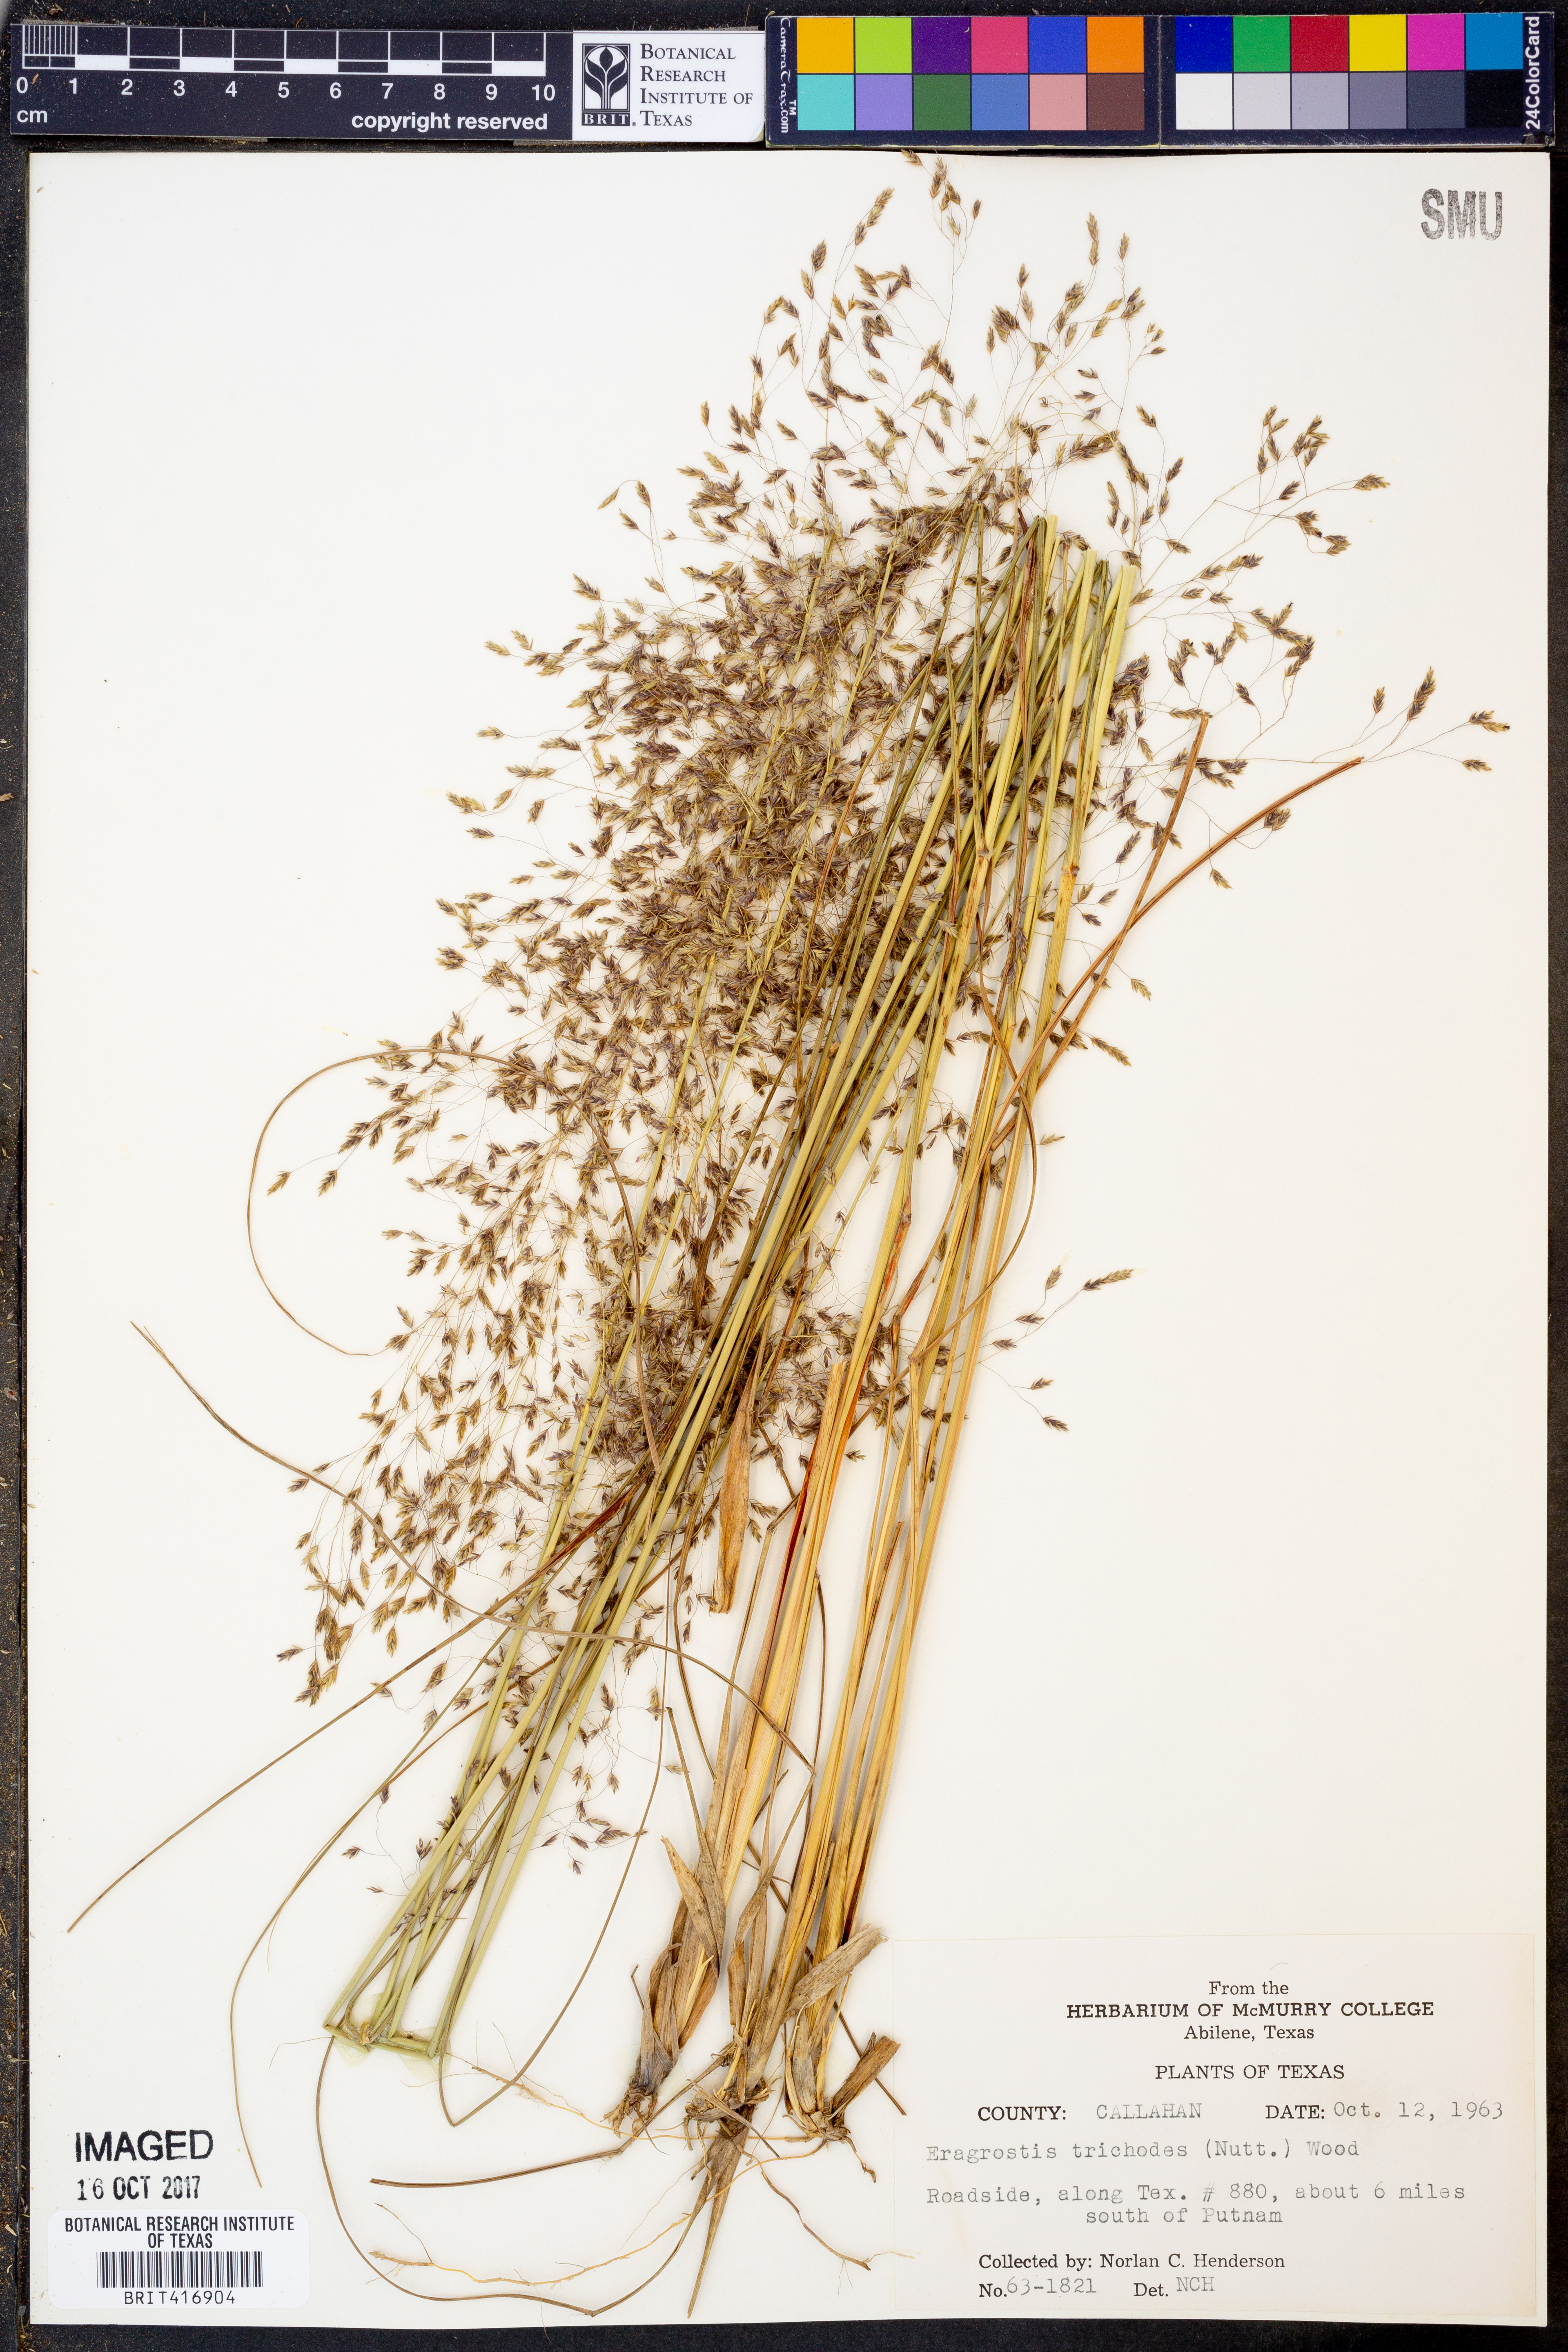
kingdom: Plantae
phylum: Tracheophyta
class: Liliopsida
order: Poales
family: Poaceae
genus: Eragrostis
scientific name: Eragrostis trichodes
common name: Sand love grass
